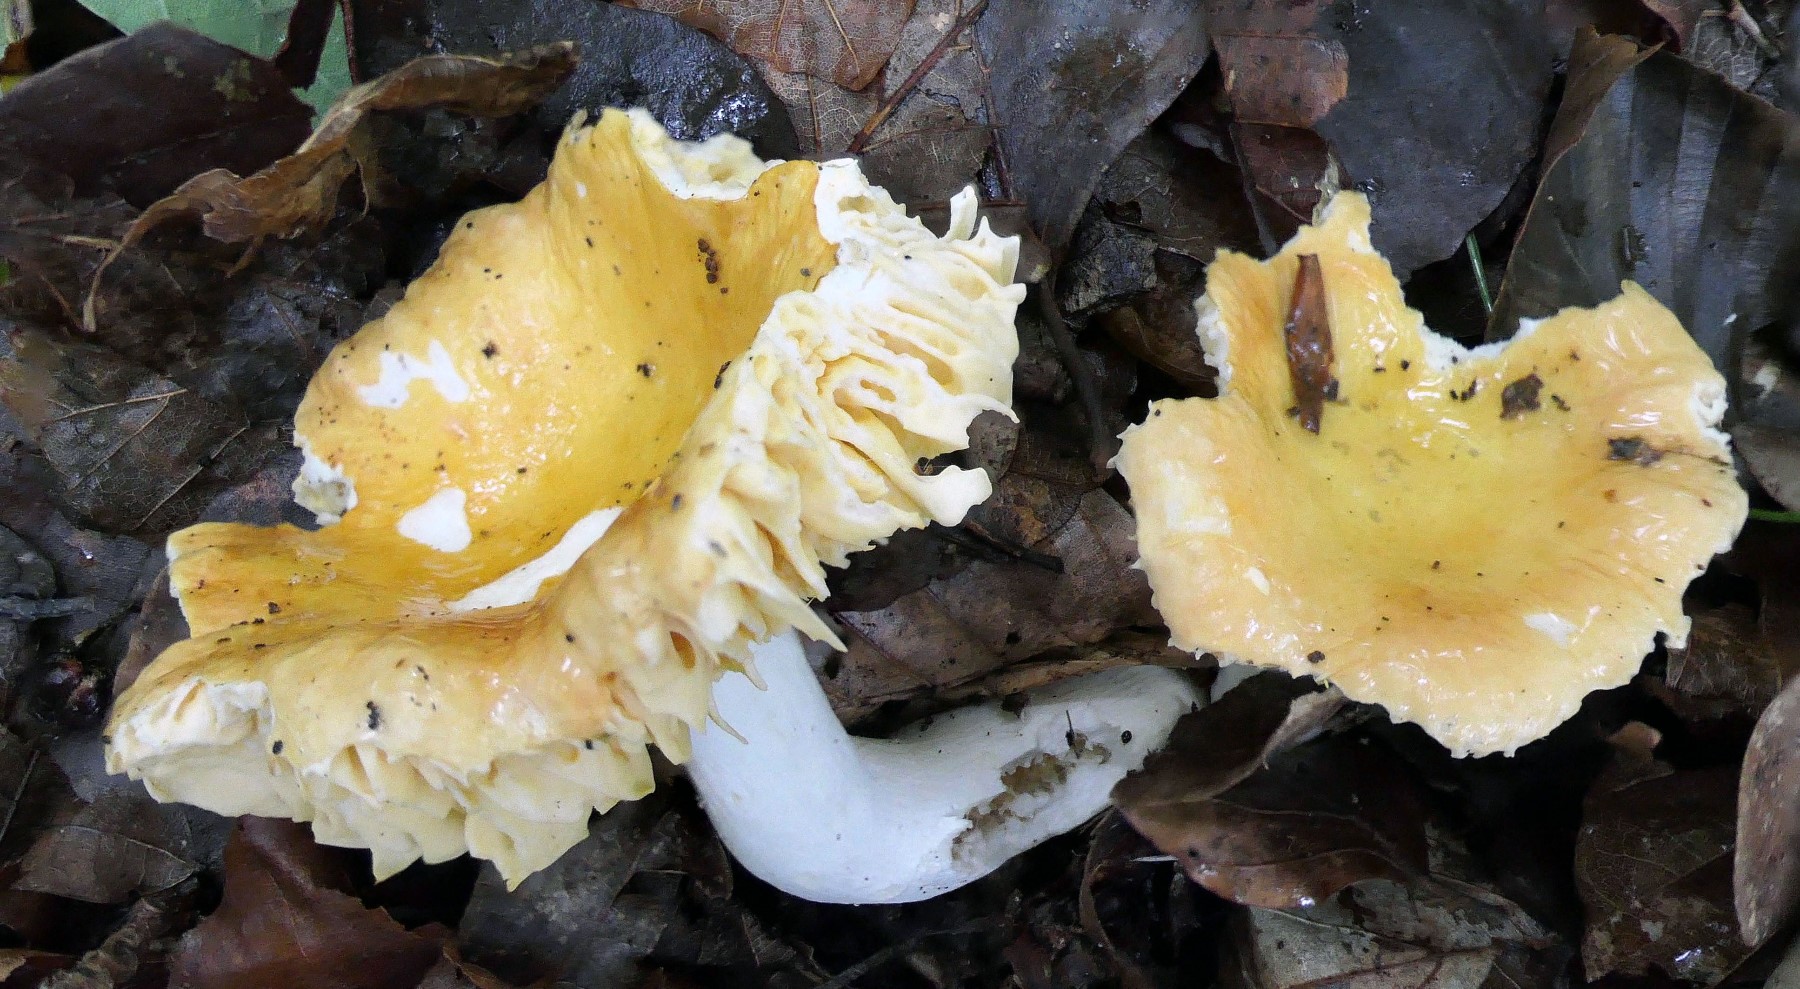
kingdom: Fungi
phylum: Basidiomycota
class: Agaricomycetes
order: Russulales
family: Russulaceae
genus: Russula
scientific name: Russula risigallina
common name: abrikos-skørhat
